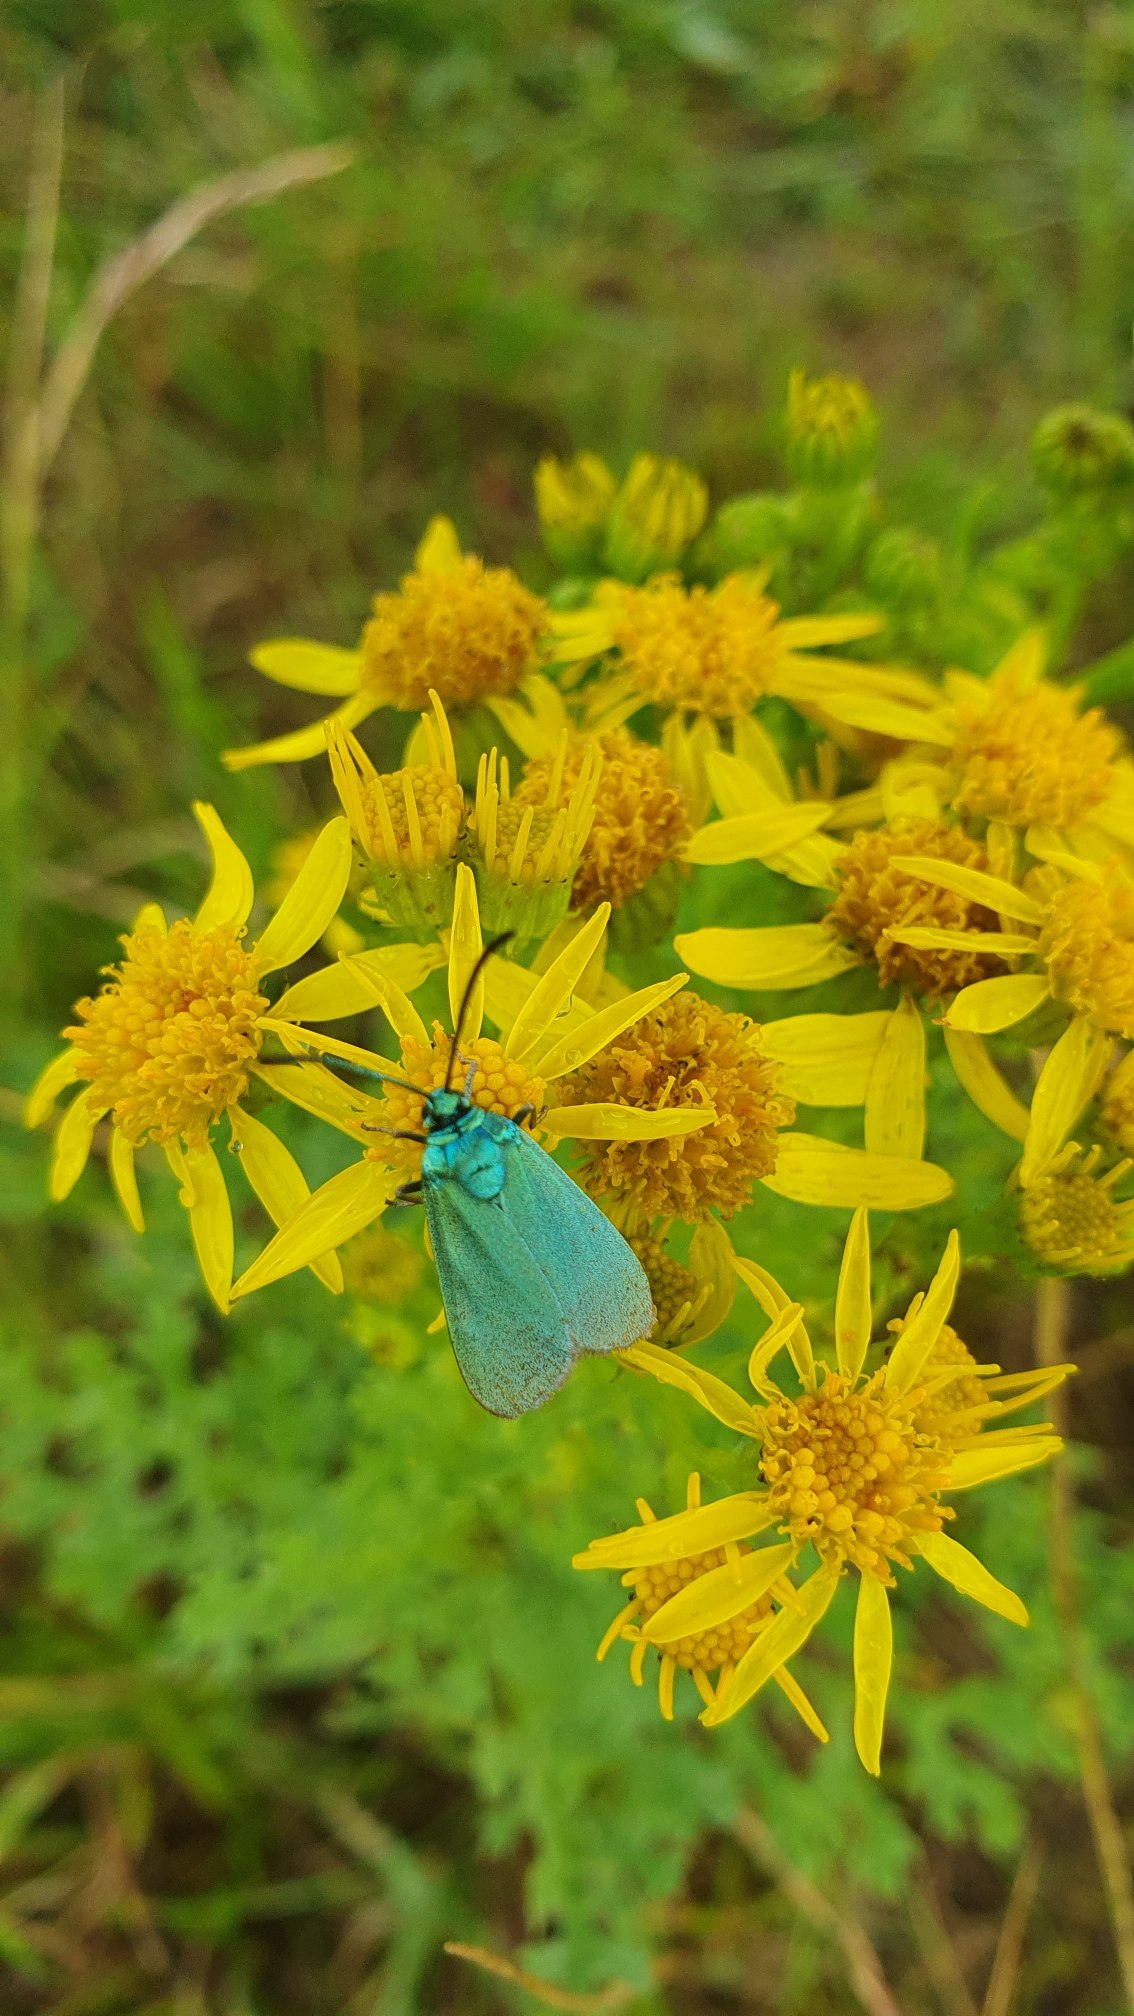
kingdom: Animalia
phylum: Arthropoda
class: Insecta
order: Lepidoptera
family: Zygaenidae
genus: Adscita
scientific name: Adscita statices
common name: Metalvinge
